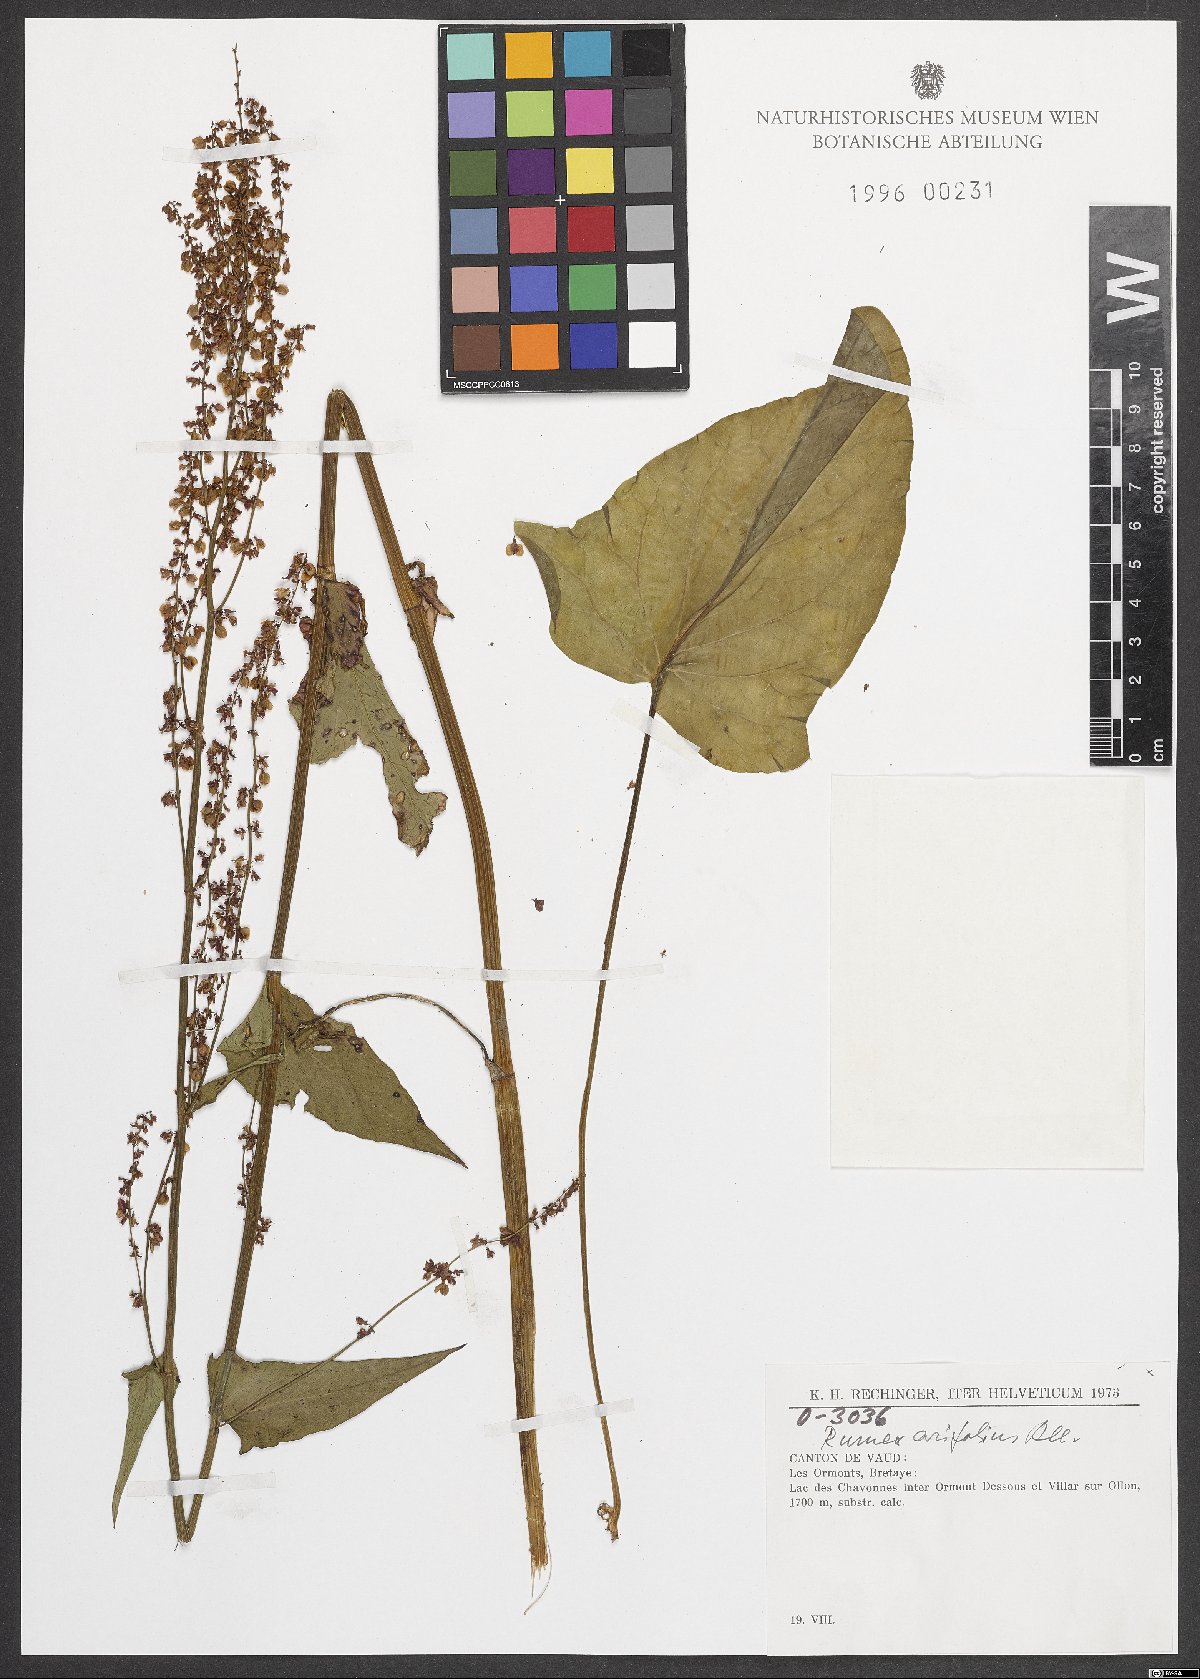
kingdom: Plantae
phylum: Tracheophyta
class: Magnoliopsida
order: Caryophyllales
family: Polygonaceae
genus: Rumex
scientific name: Rumex arifolius
